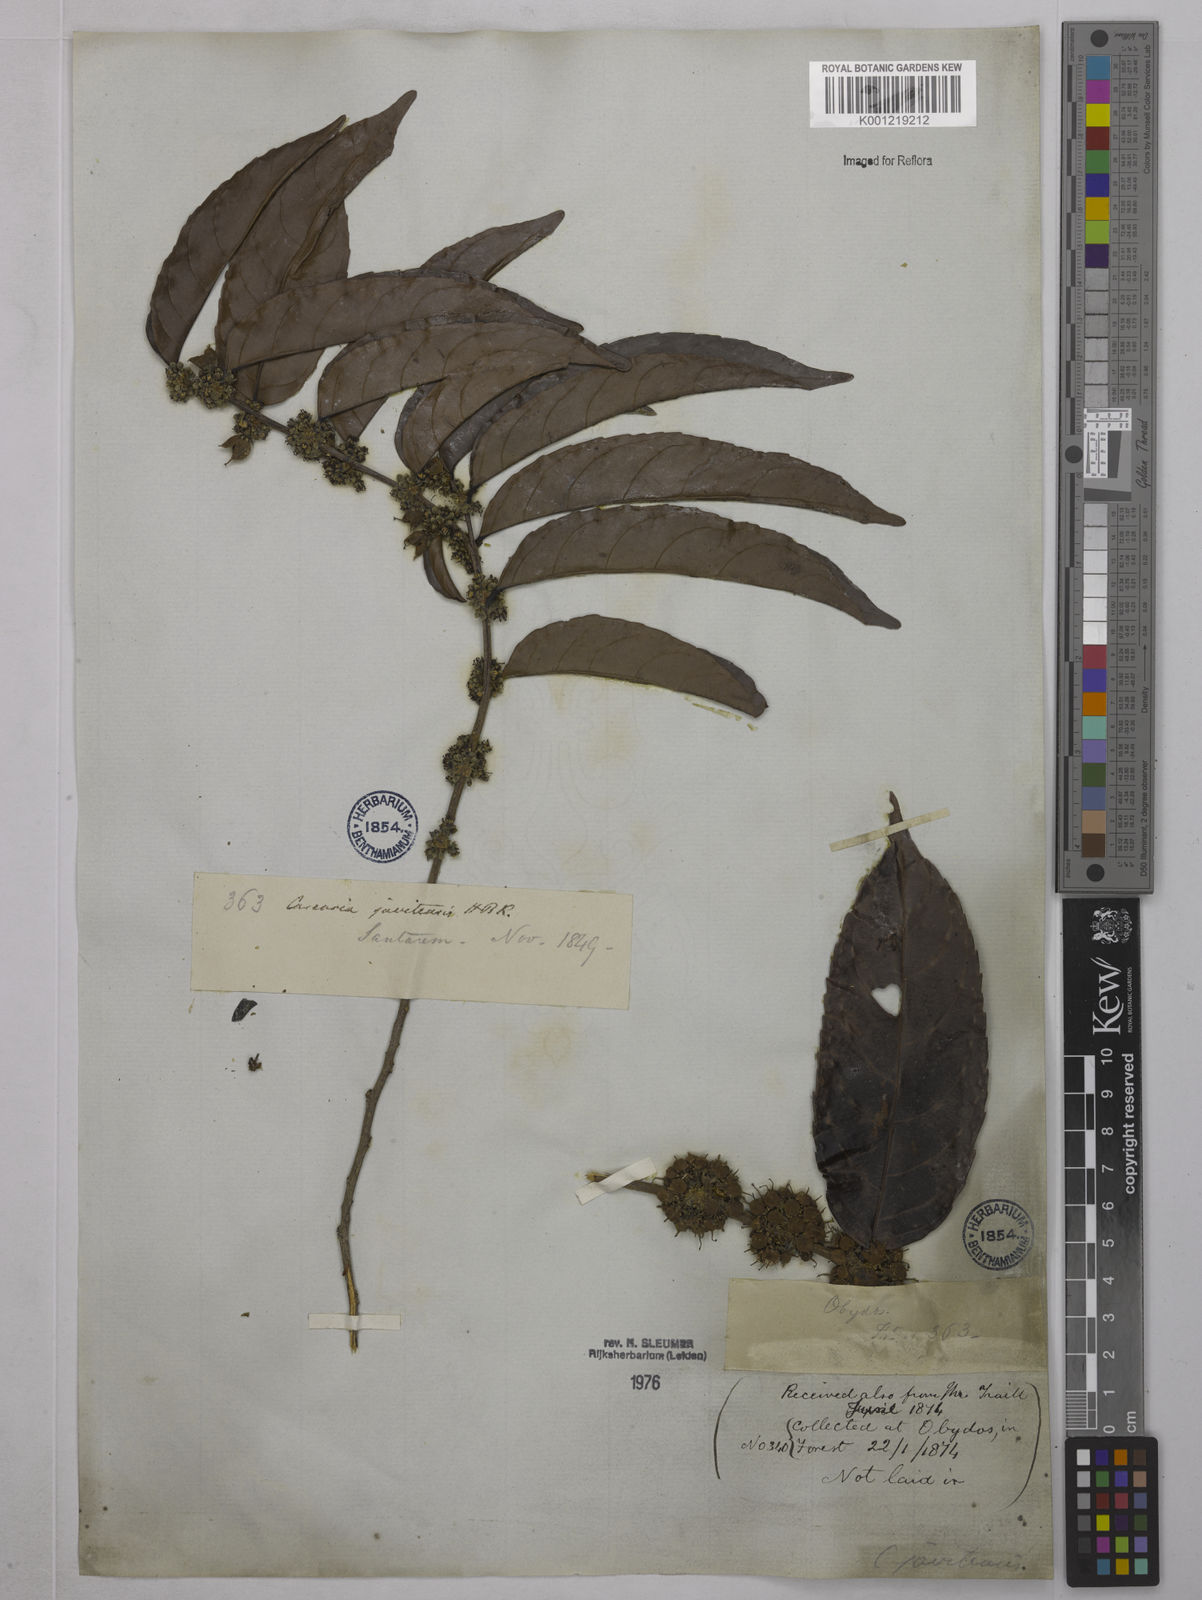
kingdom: Plantae
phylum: Tracheophyta
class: Magnoliopsida
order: Malpighiales
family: Salicaceae
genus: Piparea
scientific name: Piparea multiflora
